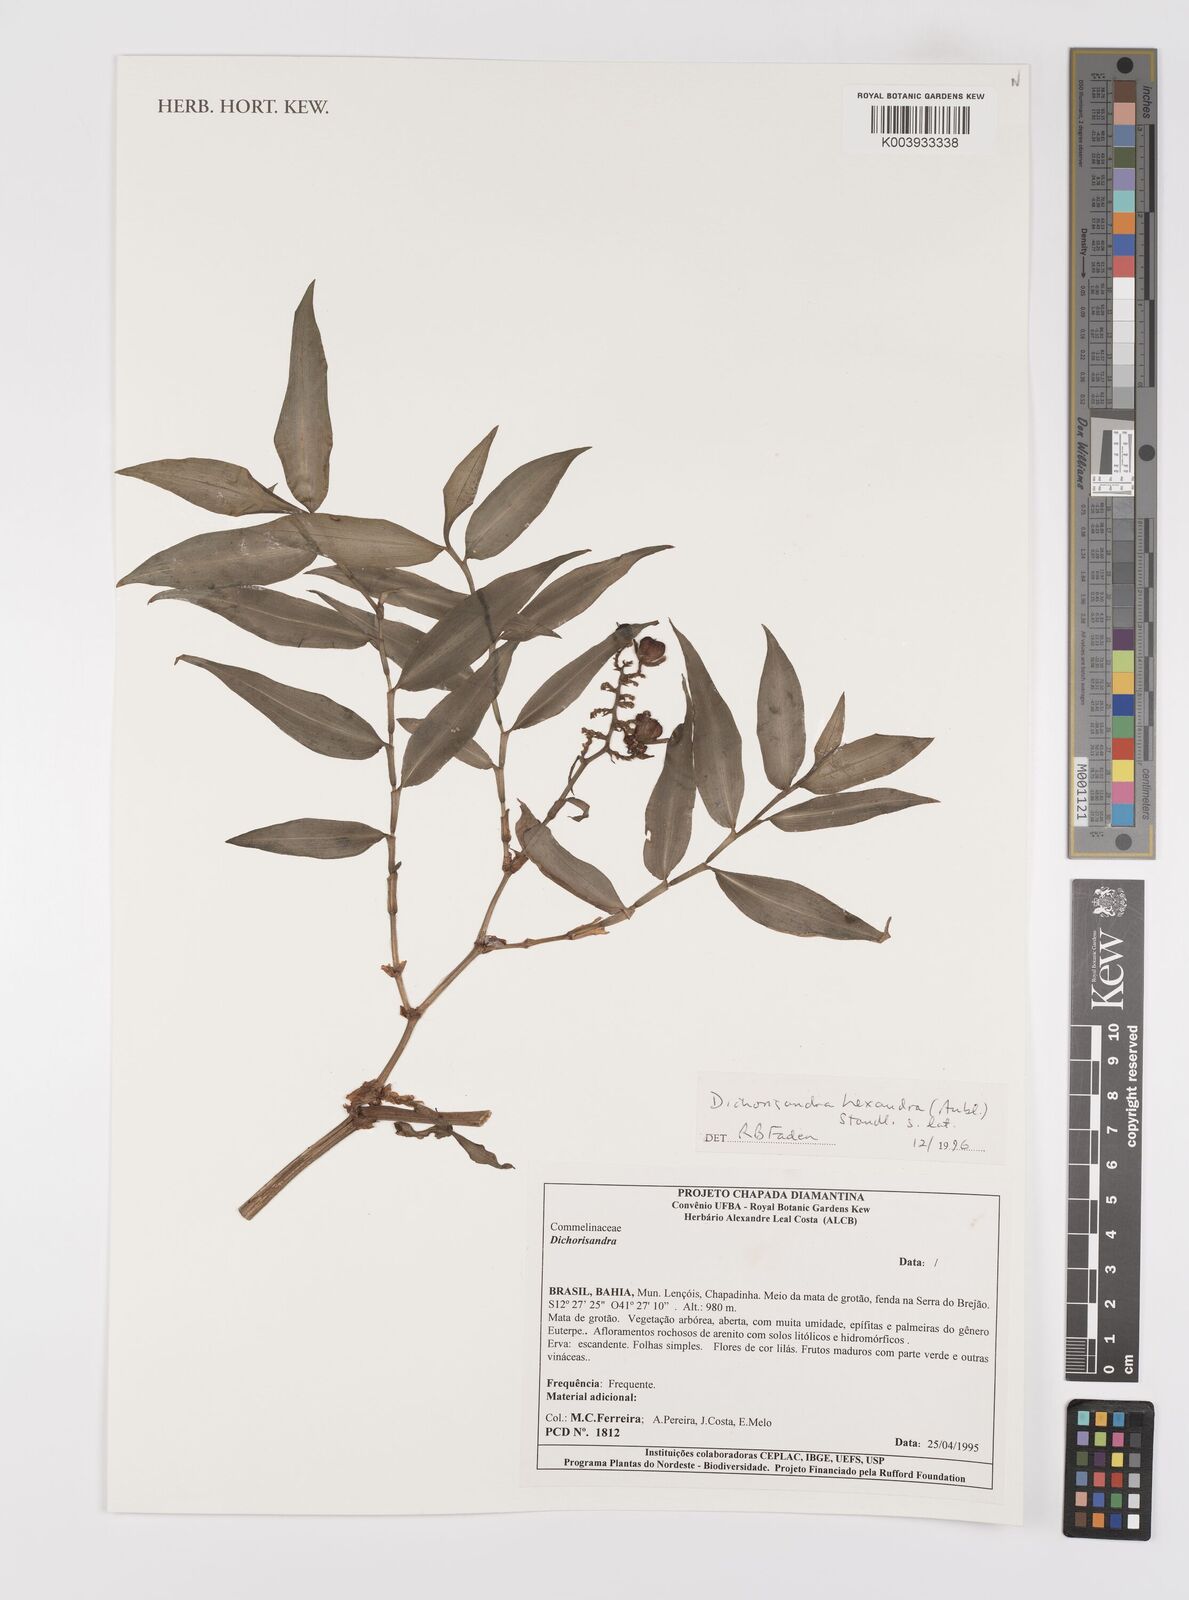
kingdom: Plantae
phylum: Tracheophyta
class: Liliopsida
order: Commelinales
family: Commelinaceae
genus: Dichorisandra
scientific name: Dichorisandra
